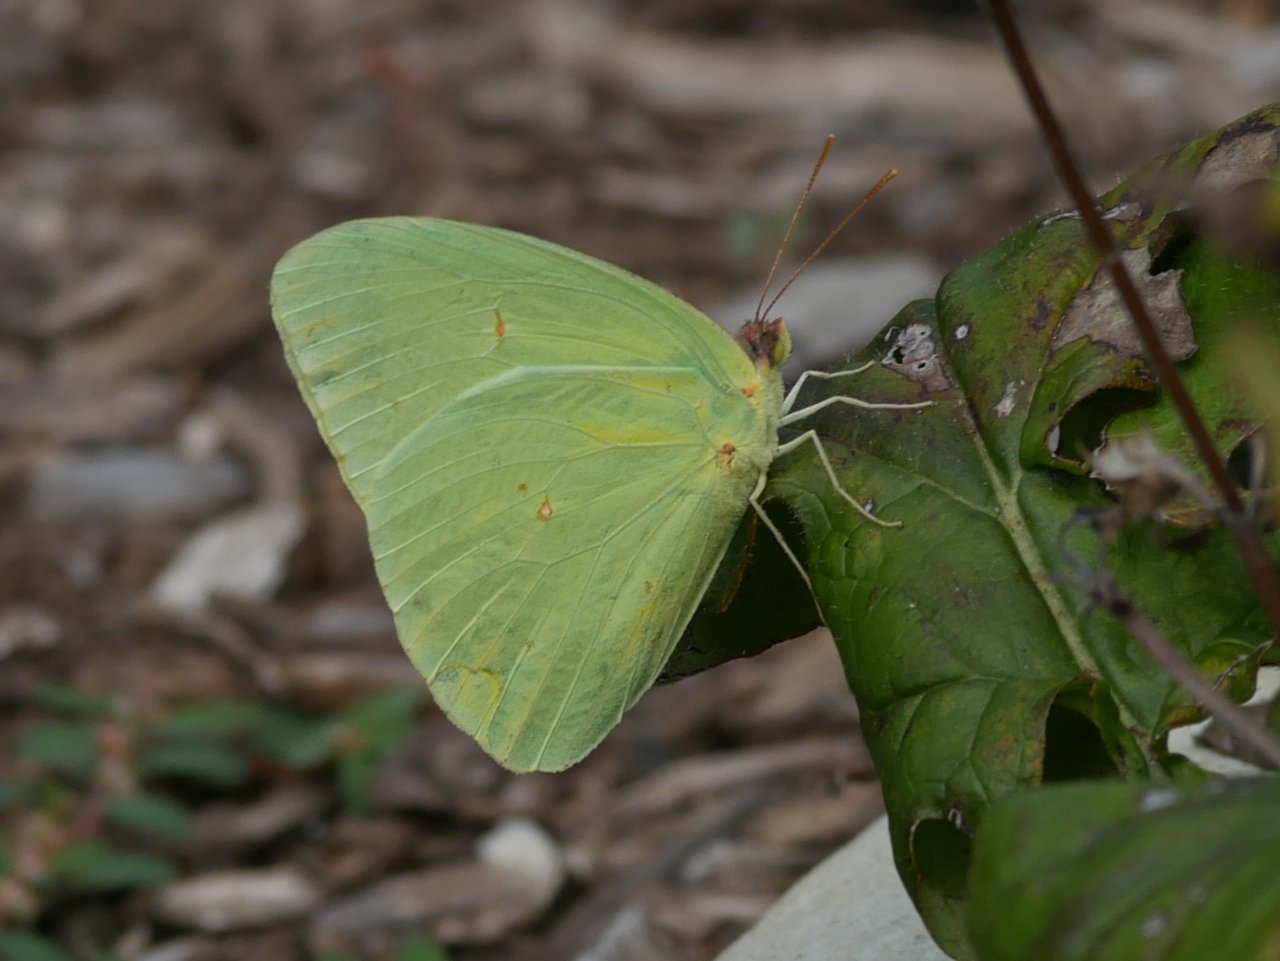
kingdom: Animalia
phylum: Arthropoda
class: Insecta
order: Lepidoptera
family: Pieridae
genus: Phoebis
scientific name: Phoebis sennae
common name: Cloudless Sulphur
